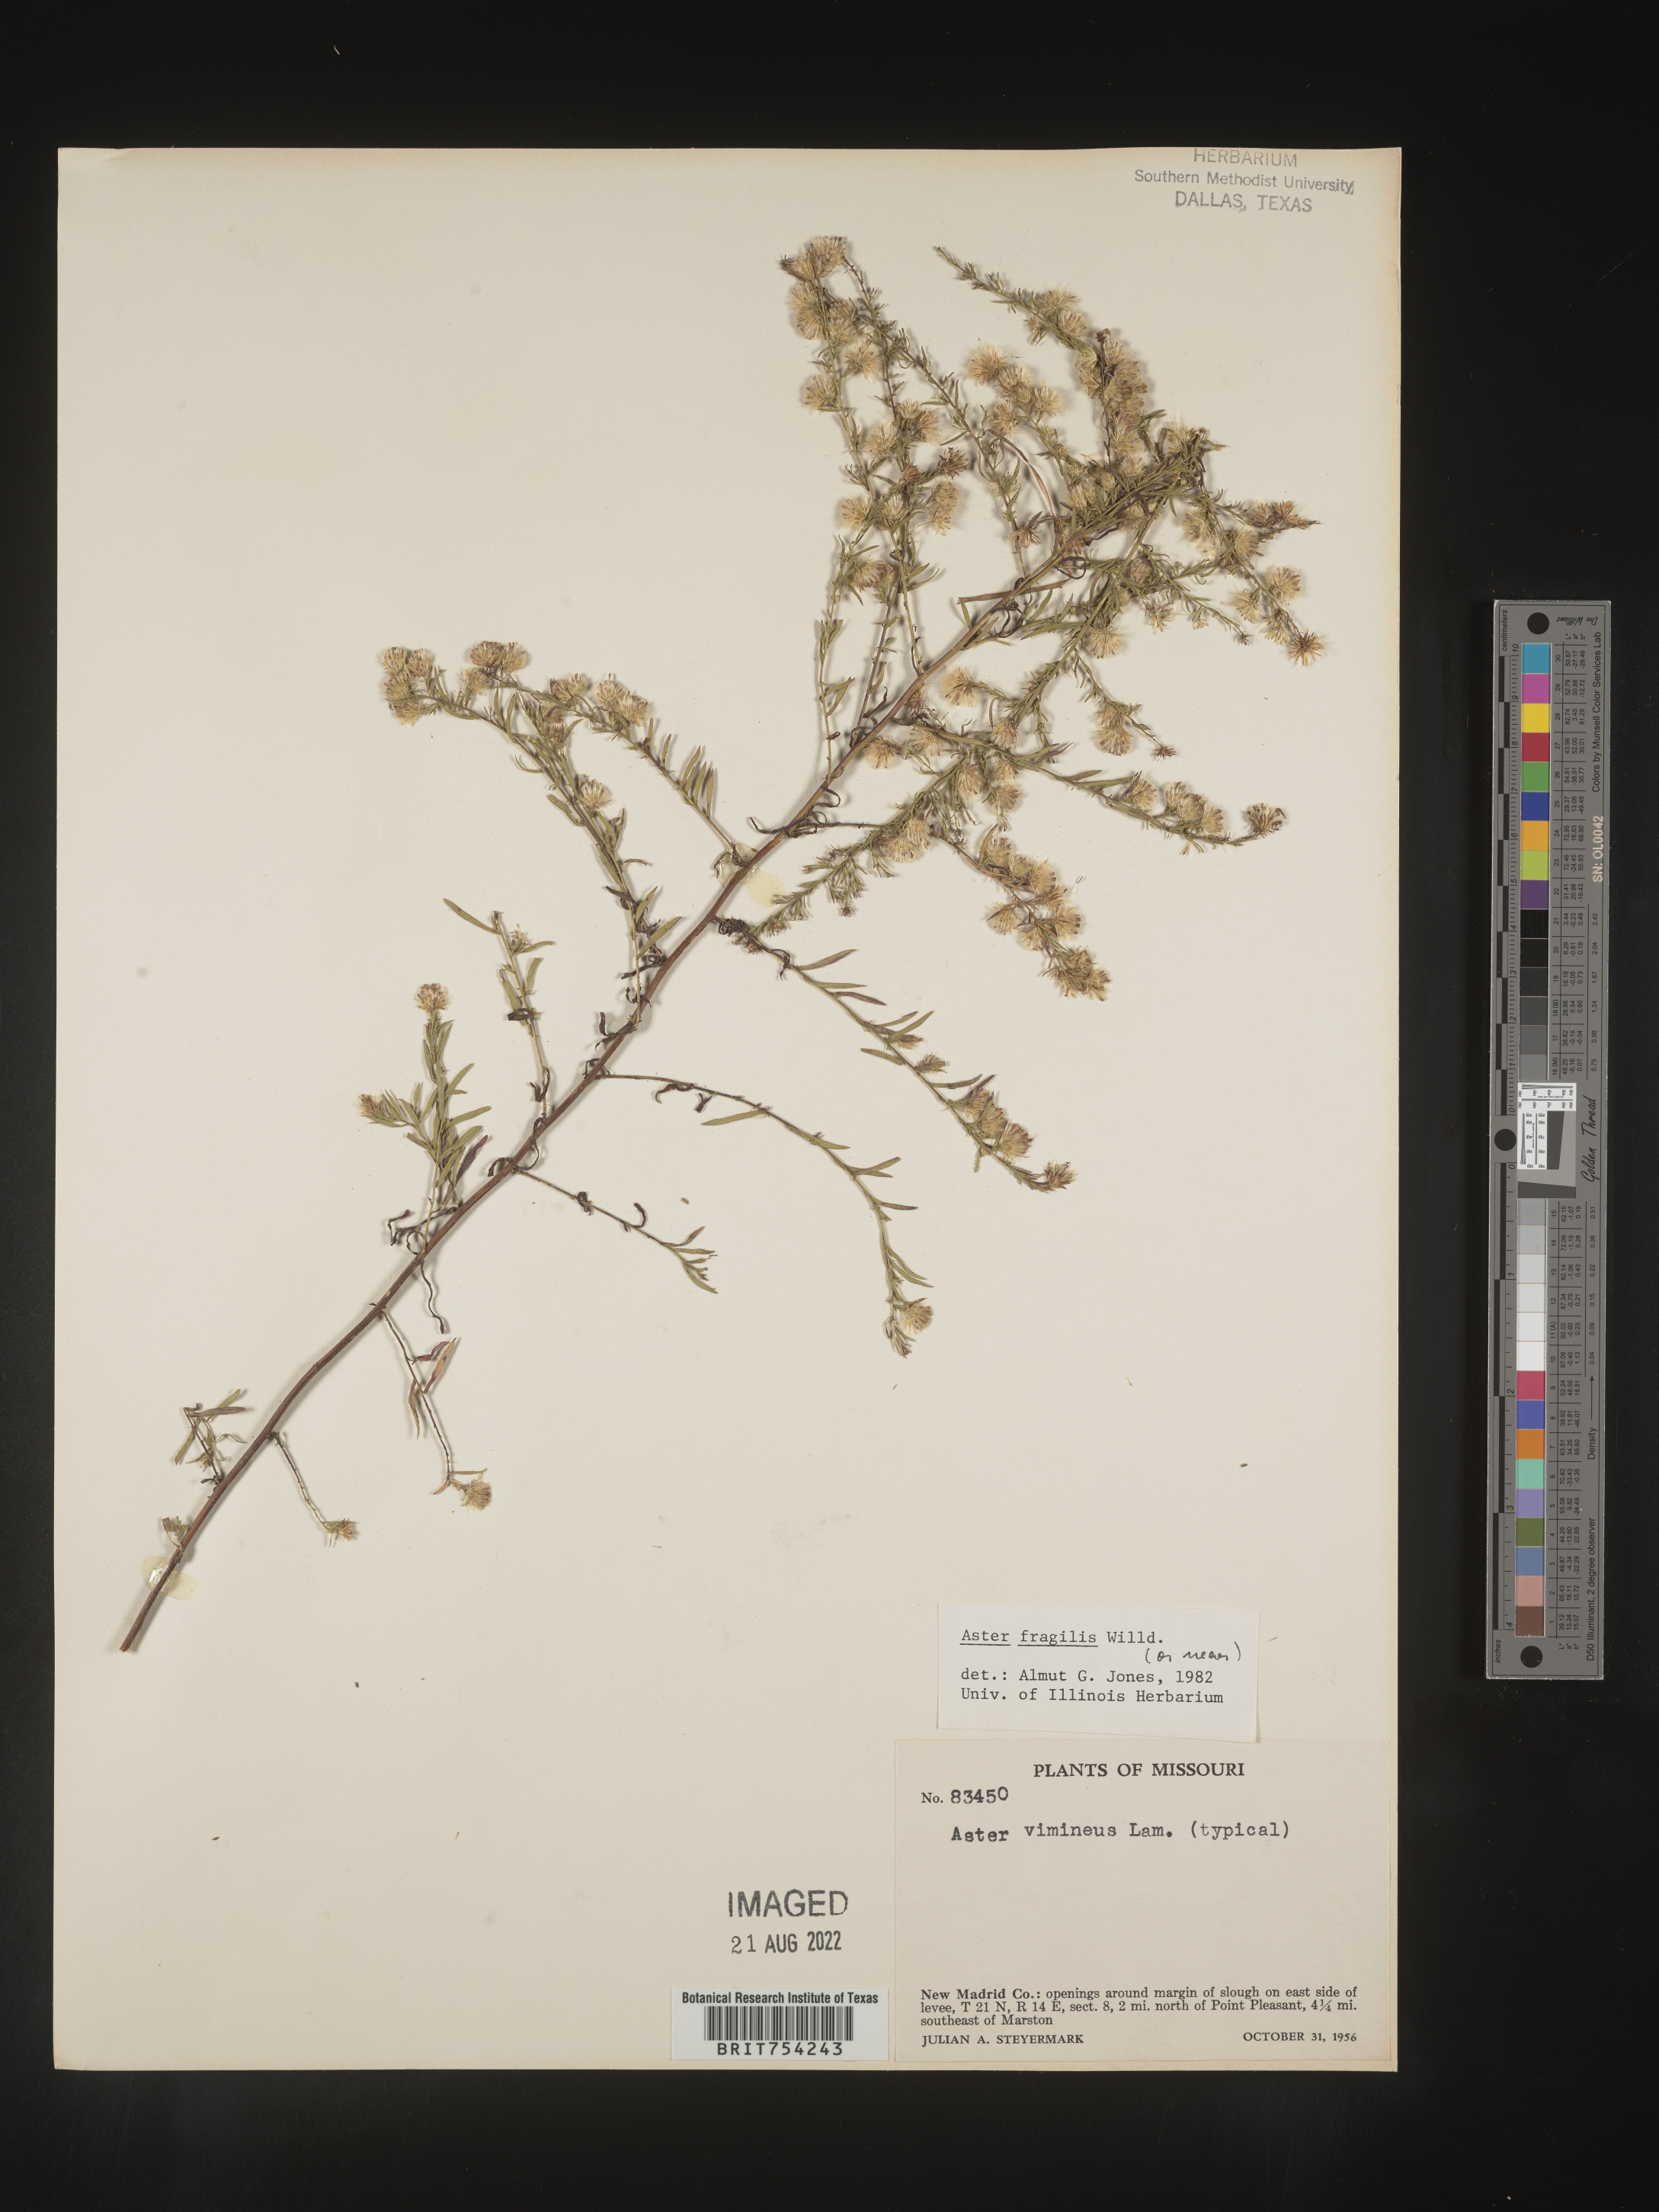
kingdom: Plantae
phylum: Tracheophyta
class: Magnoliopsida
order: Asterales
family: Asteraceae
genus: Symphyotrichum
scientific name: Symphyotrichum racemosum
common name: Small white aster
